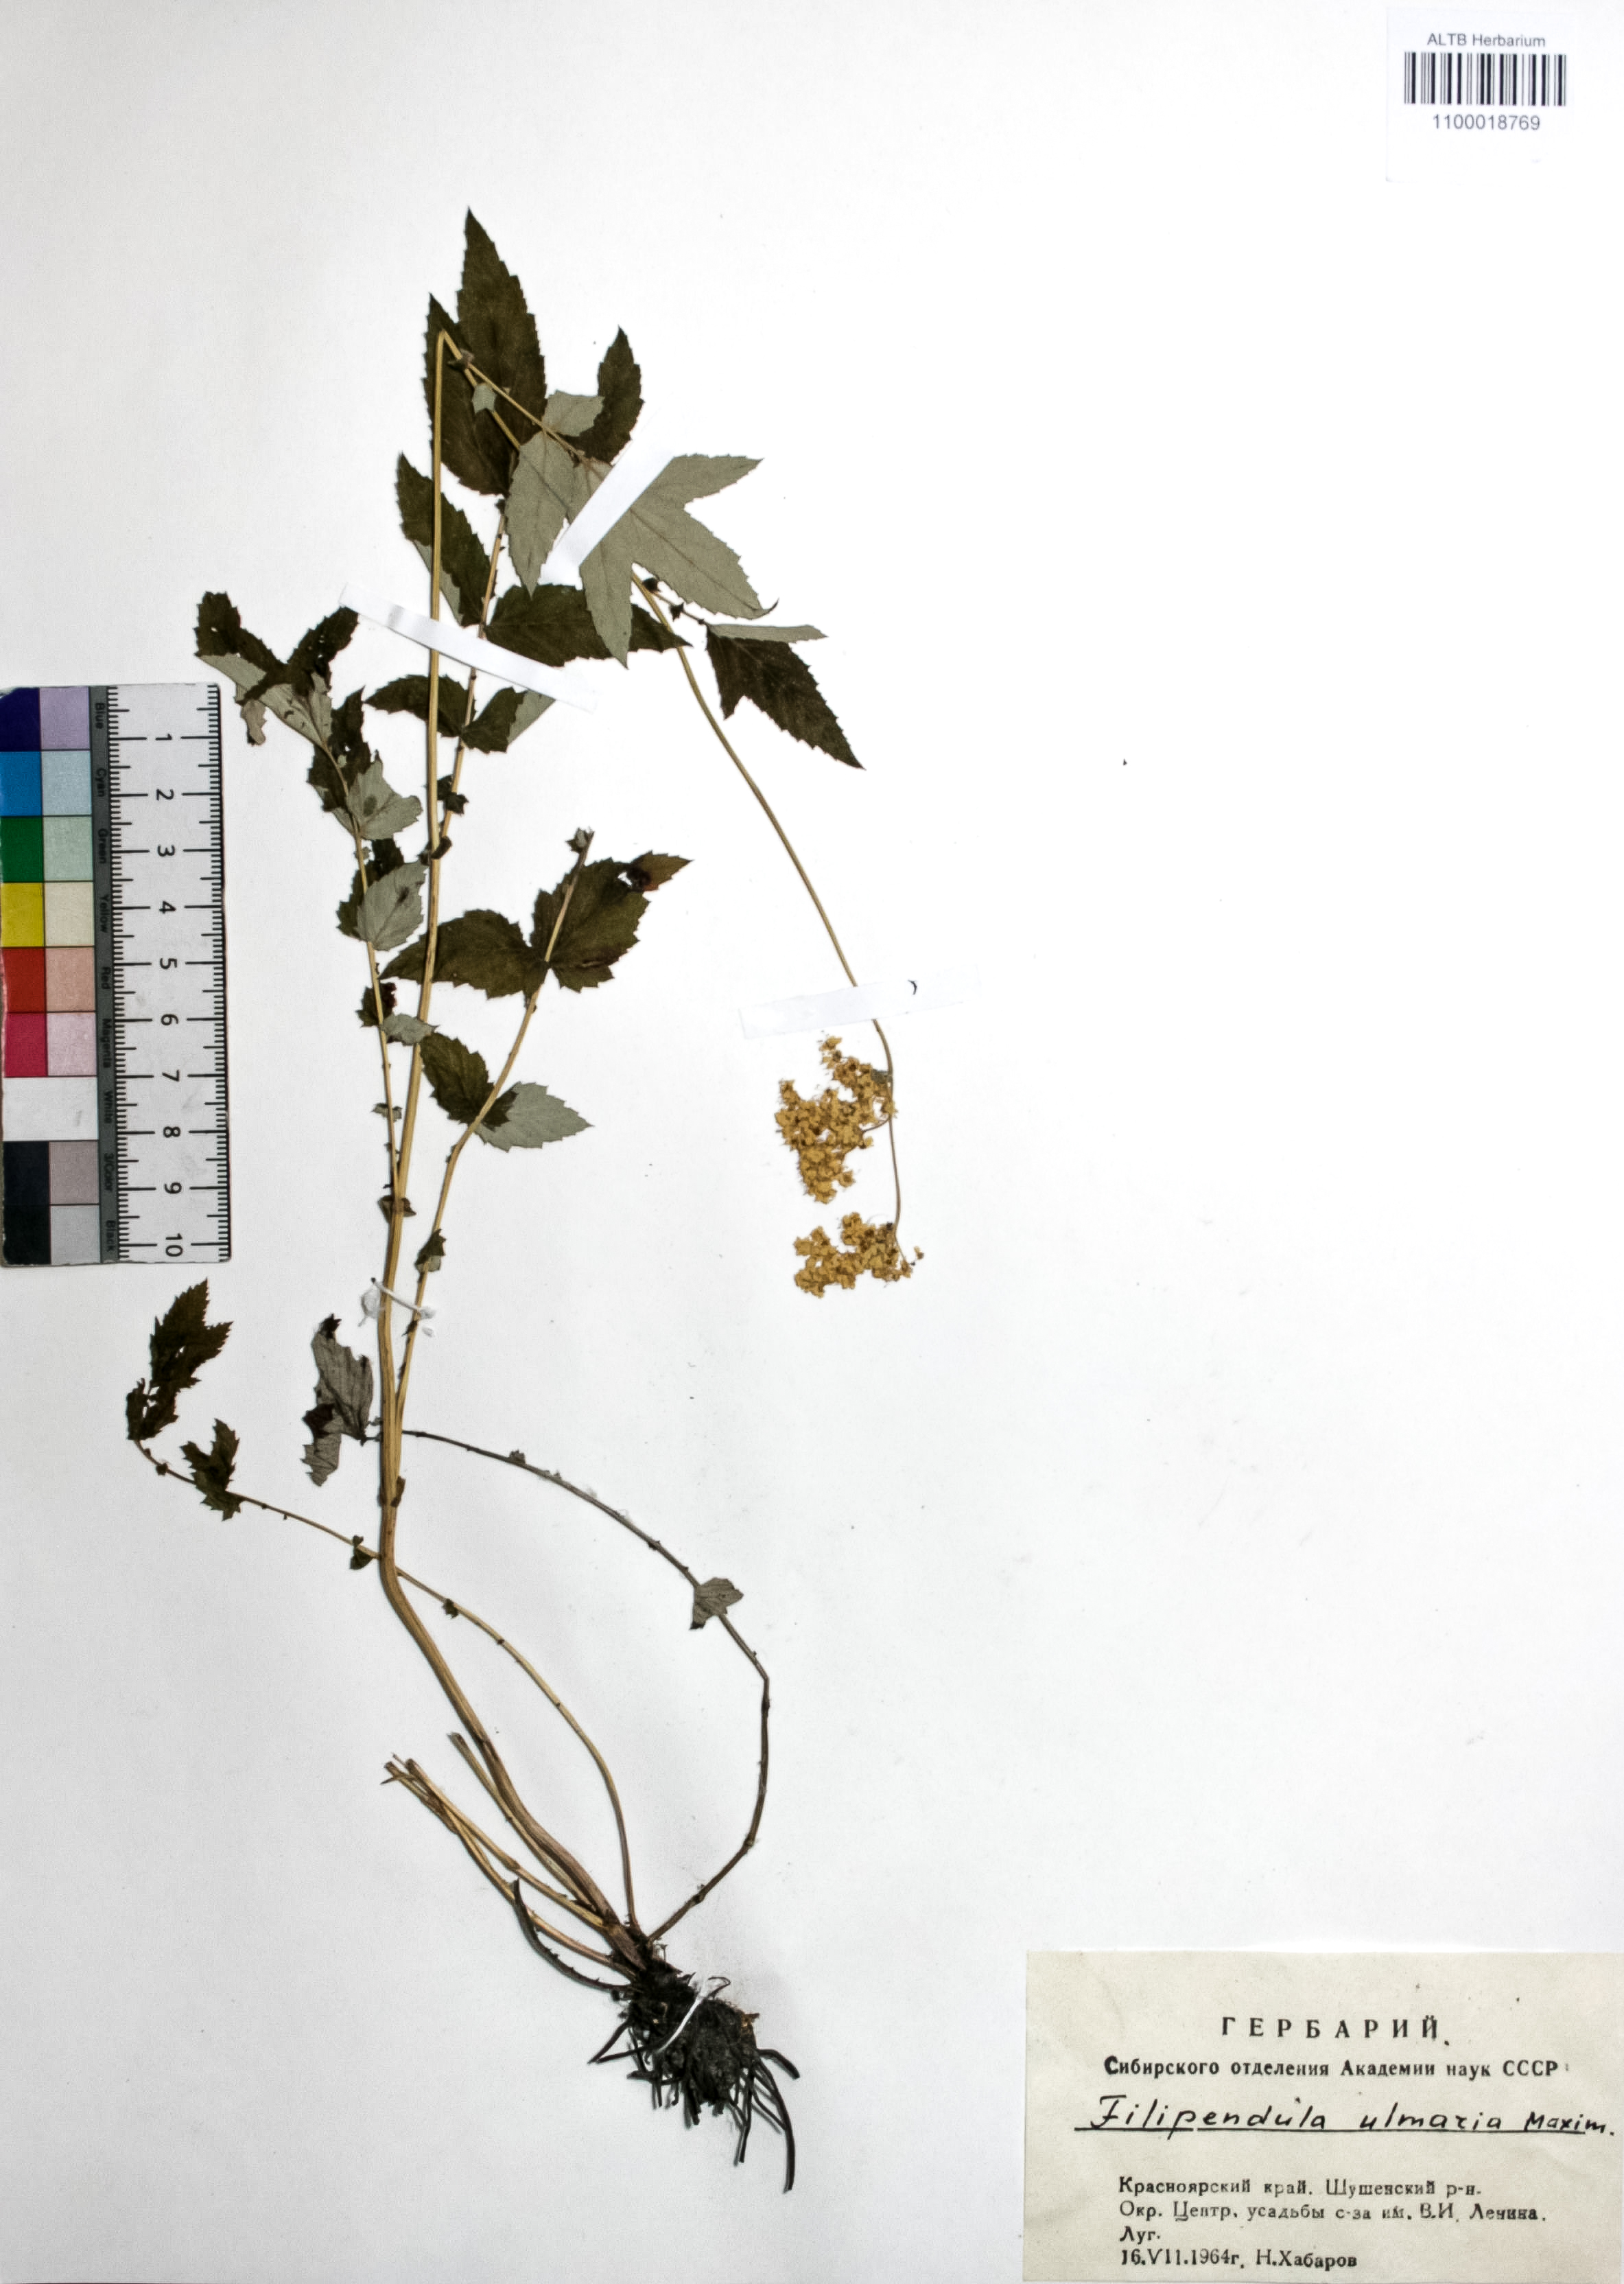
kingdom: Plantae
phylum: Tracheophyta
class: Magnoliopsida
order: Rosales
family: Rosaceae
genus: Filipendula
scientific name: Filipendula ulmaria
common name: Meadowsweet
